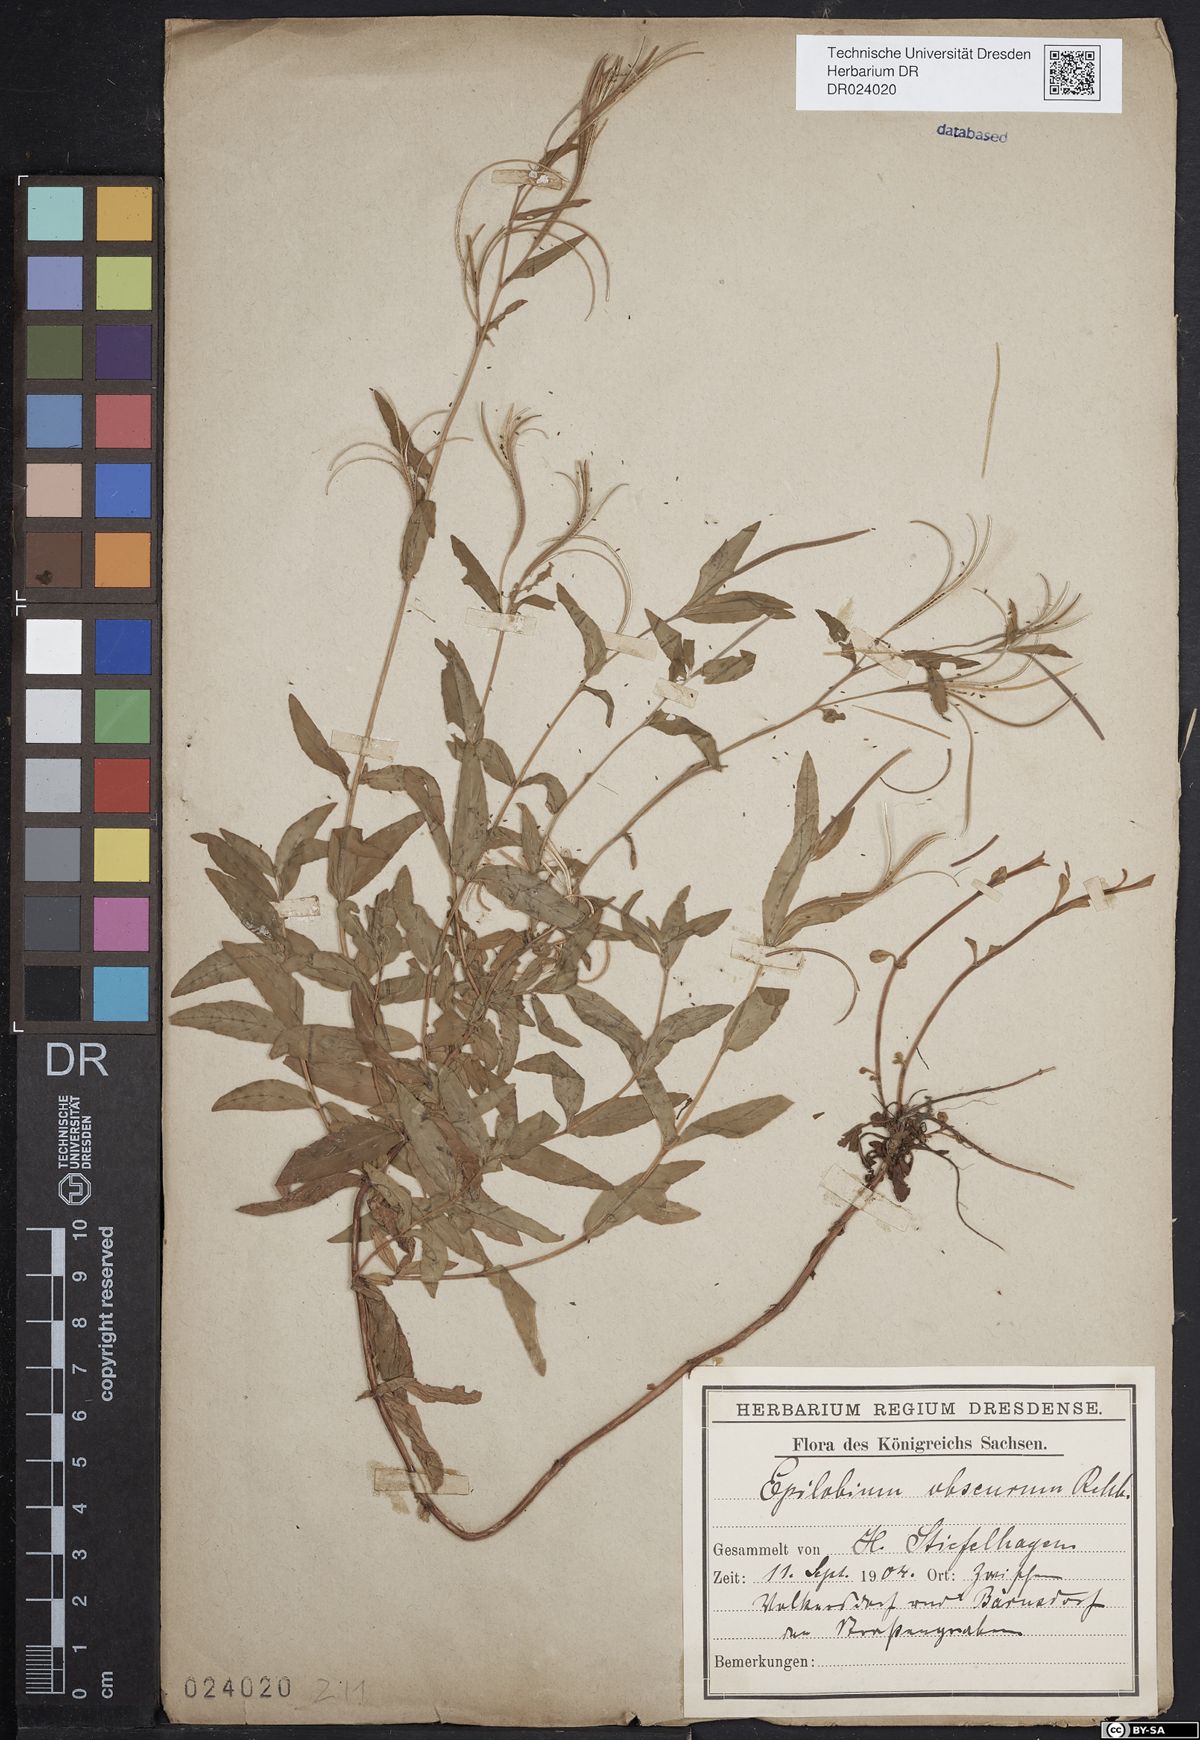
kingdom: Plantae
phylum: Tracheophyta
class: Magnoliopsida
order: Myrtales
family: Onagraceae
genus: Epilobium
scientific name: Epilobium obscurum
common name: Short-fruited willowherb
